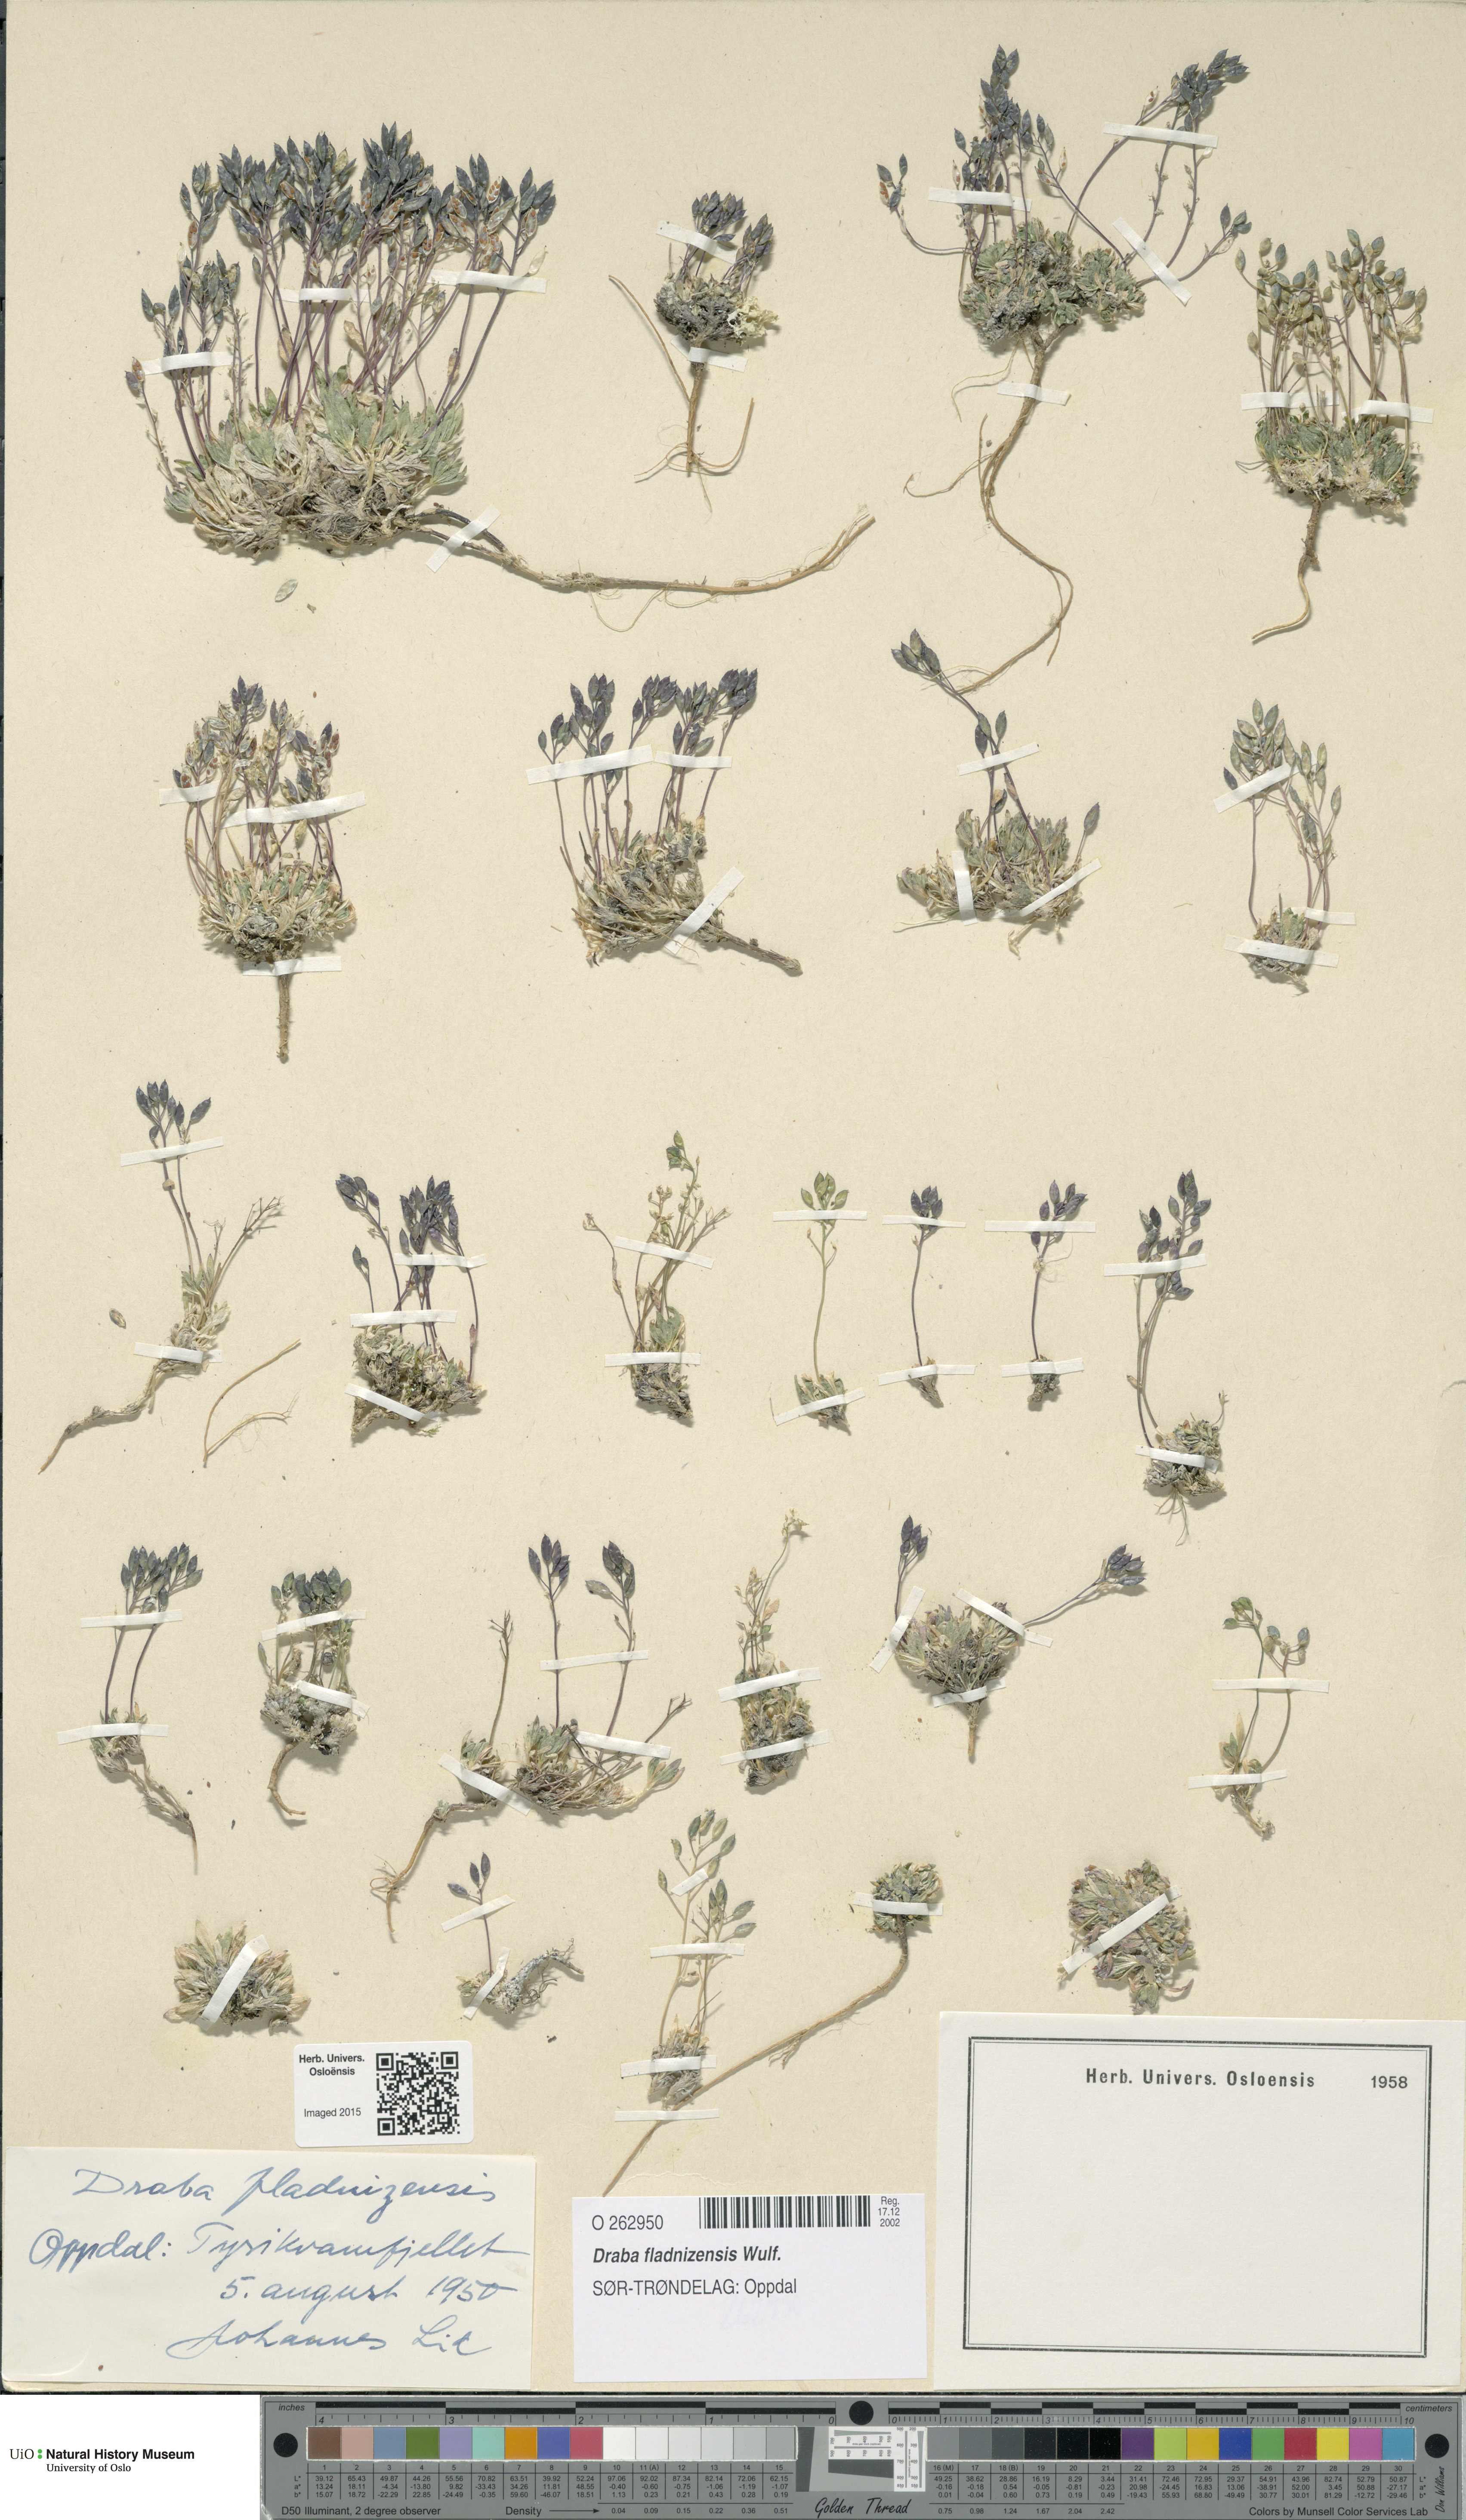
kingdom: Plantae
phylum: Tracheophyta
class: Magnoliopsida
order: Brassicales
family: Brassicaceae
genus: Draba
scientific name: Draba fladnizensis
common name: Austrian draba
